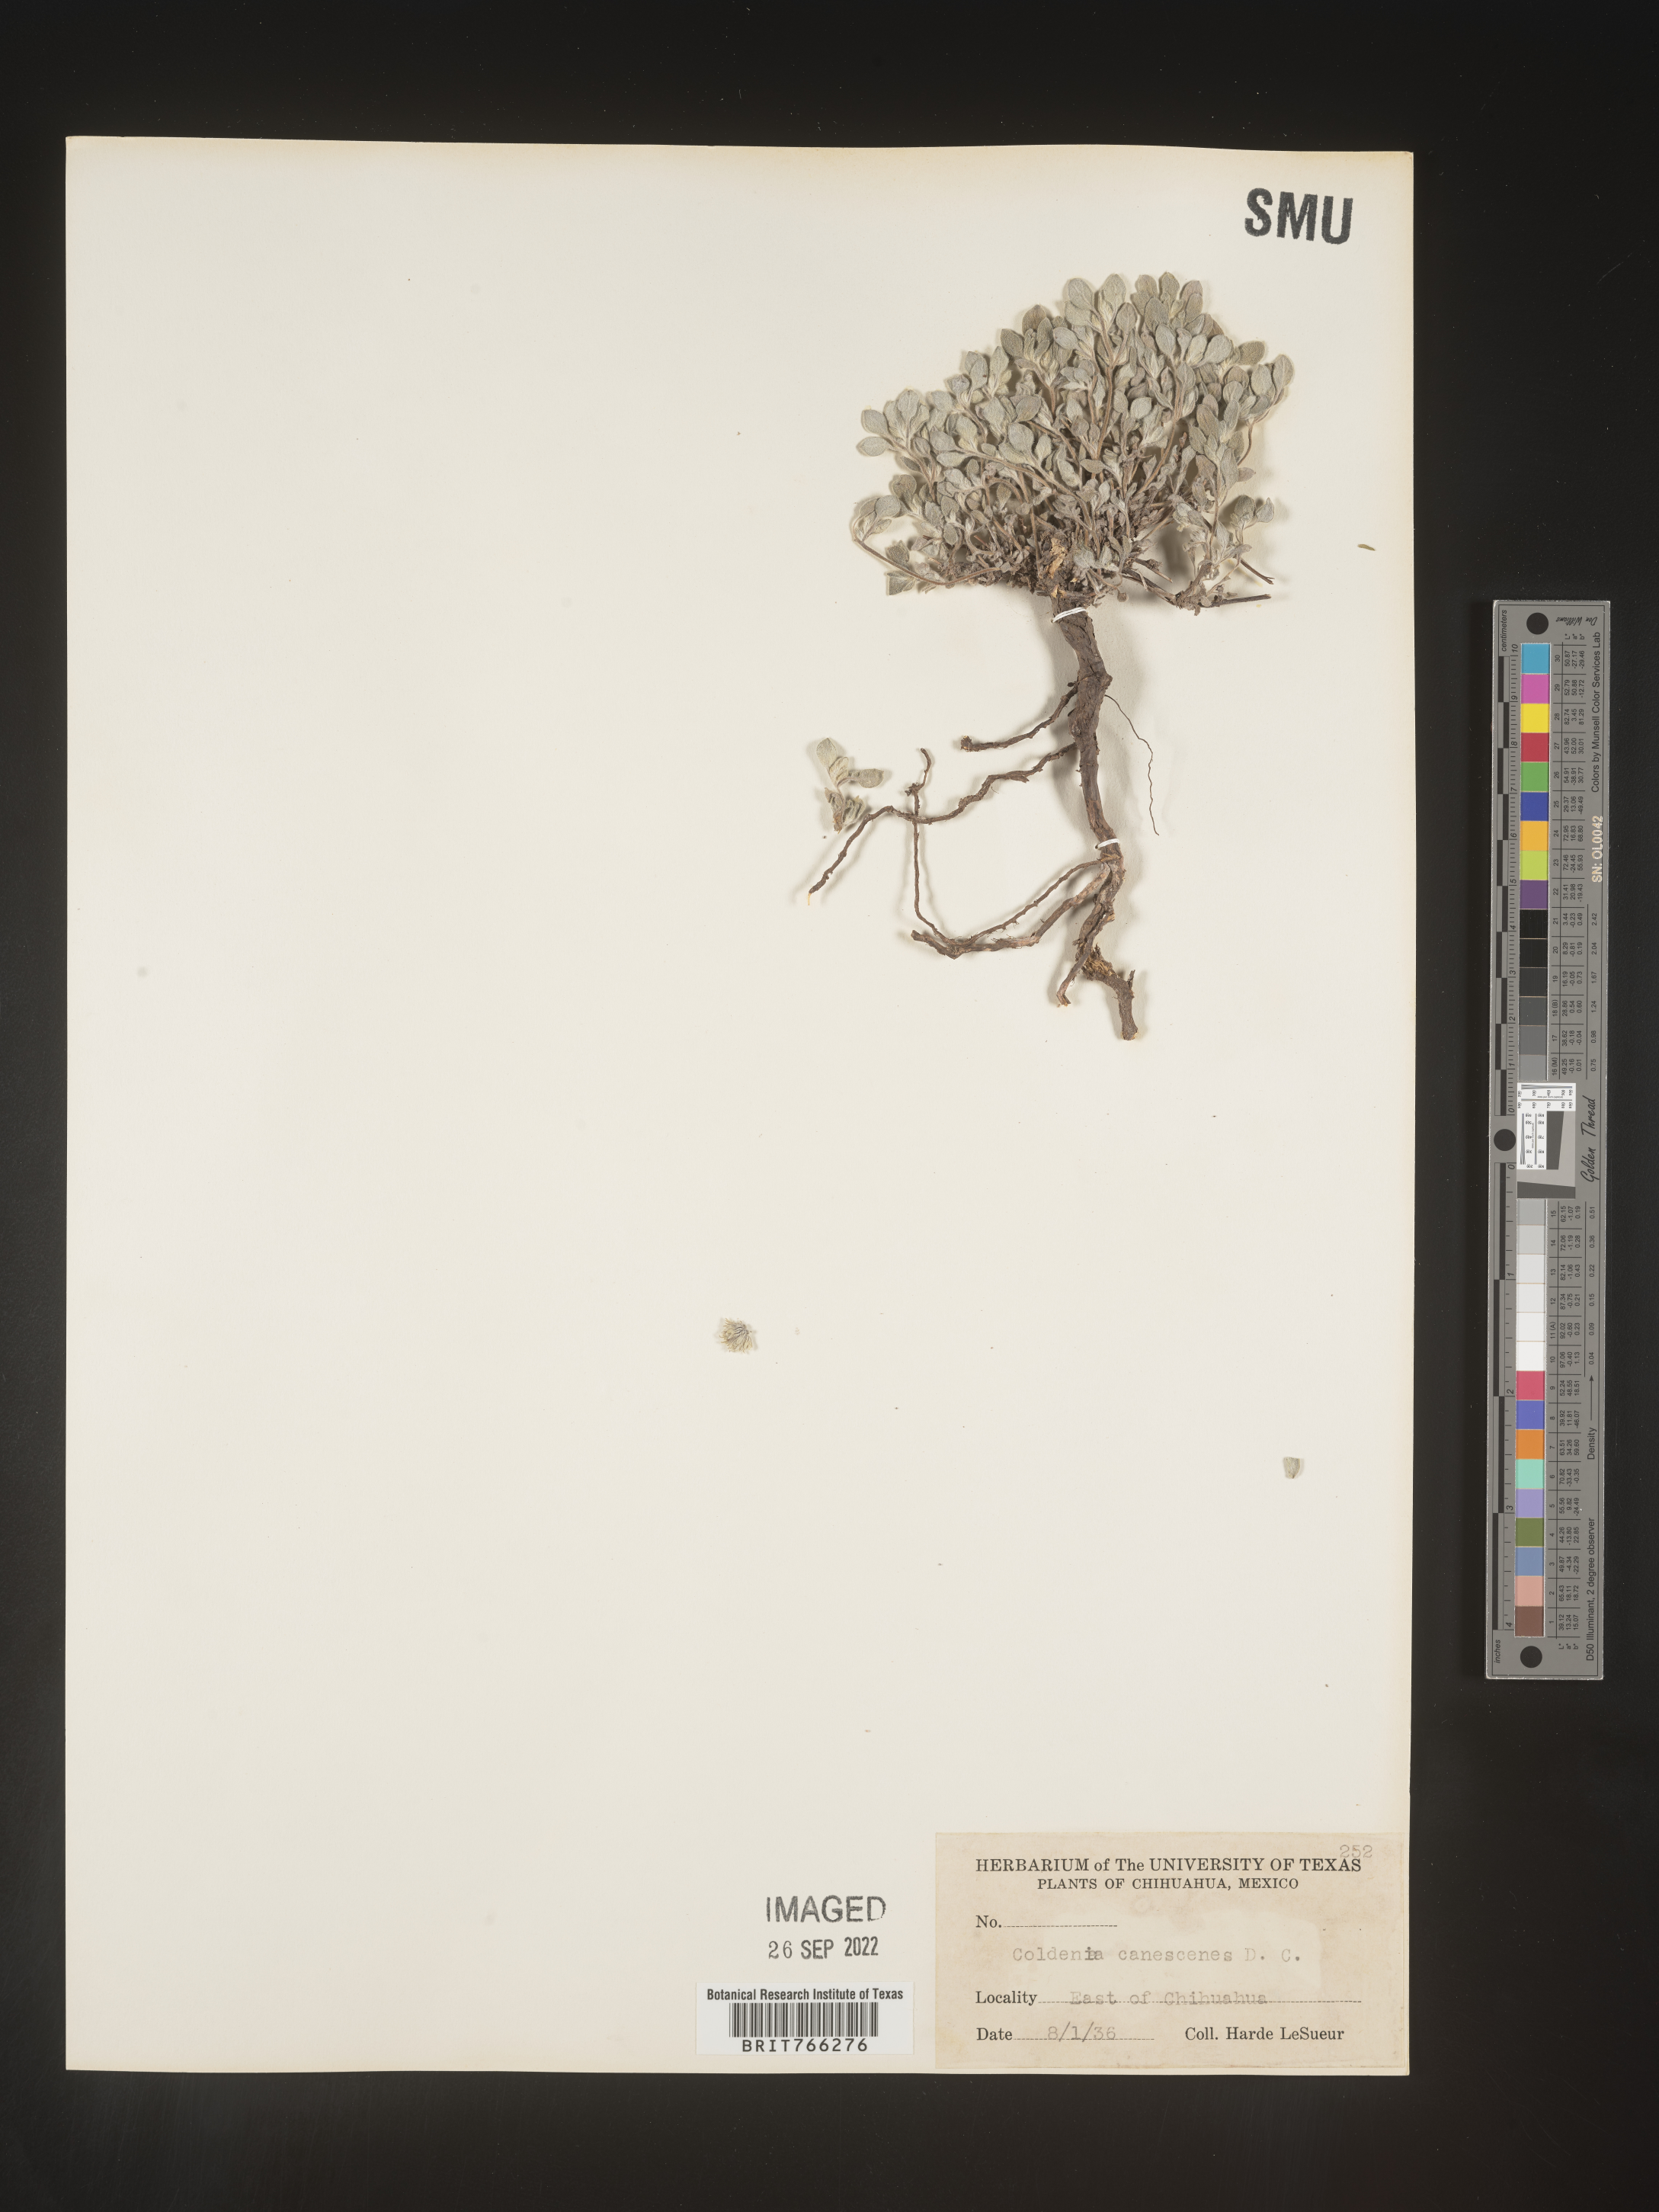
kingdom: Plantae
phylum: Tracheophyta
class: Magnoliopsida
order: Boraginales
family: Coldeniaceae
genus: Coldenia
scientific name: Coldenia
